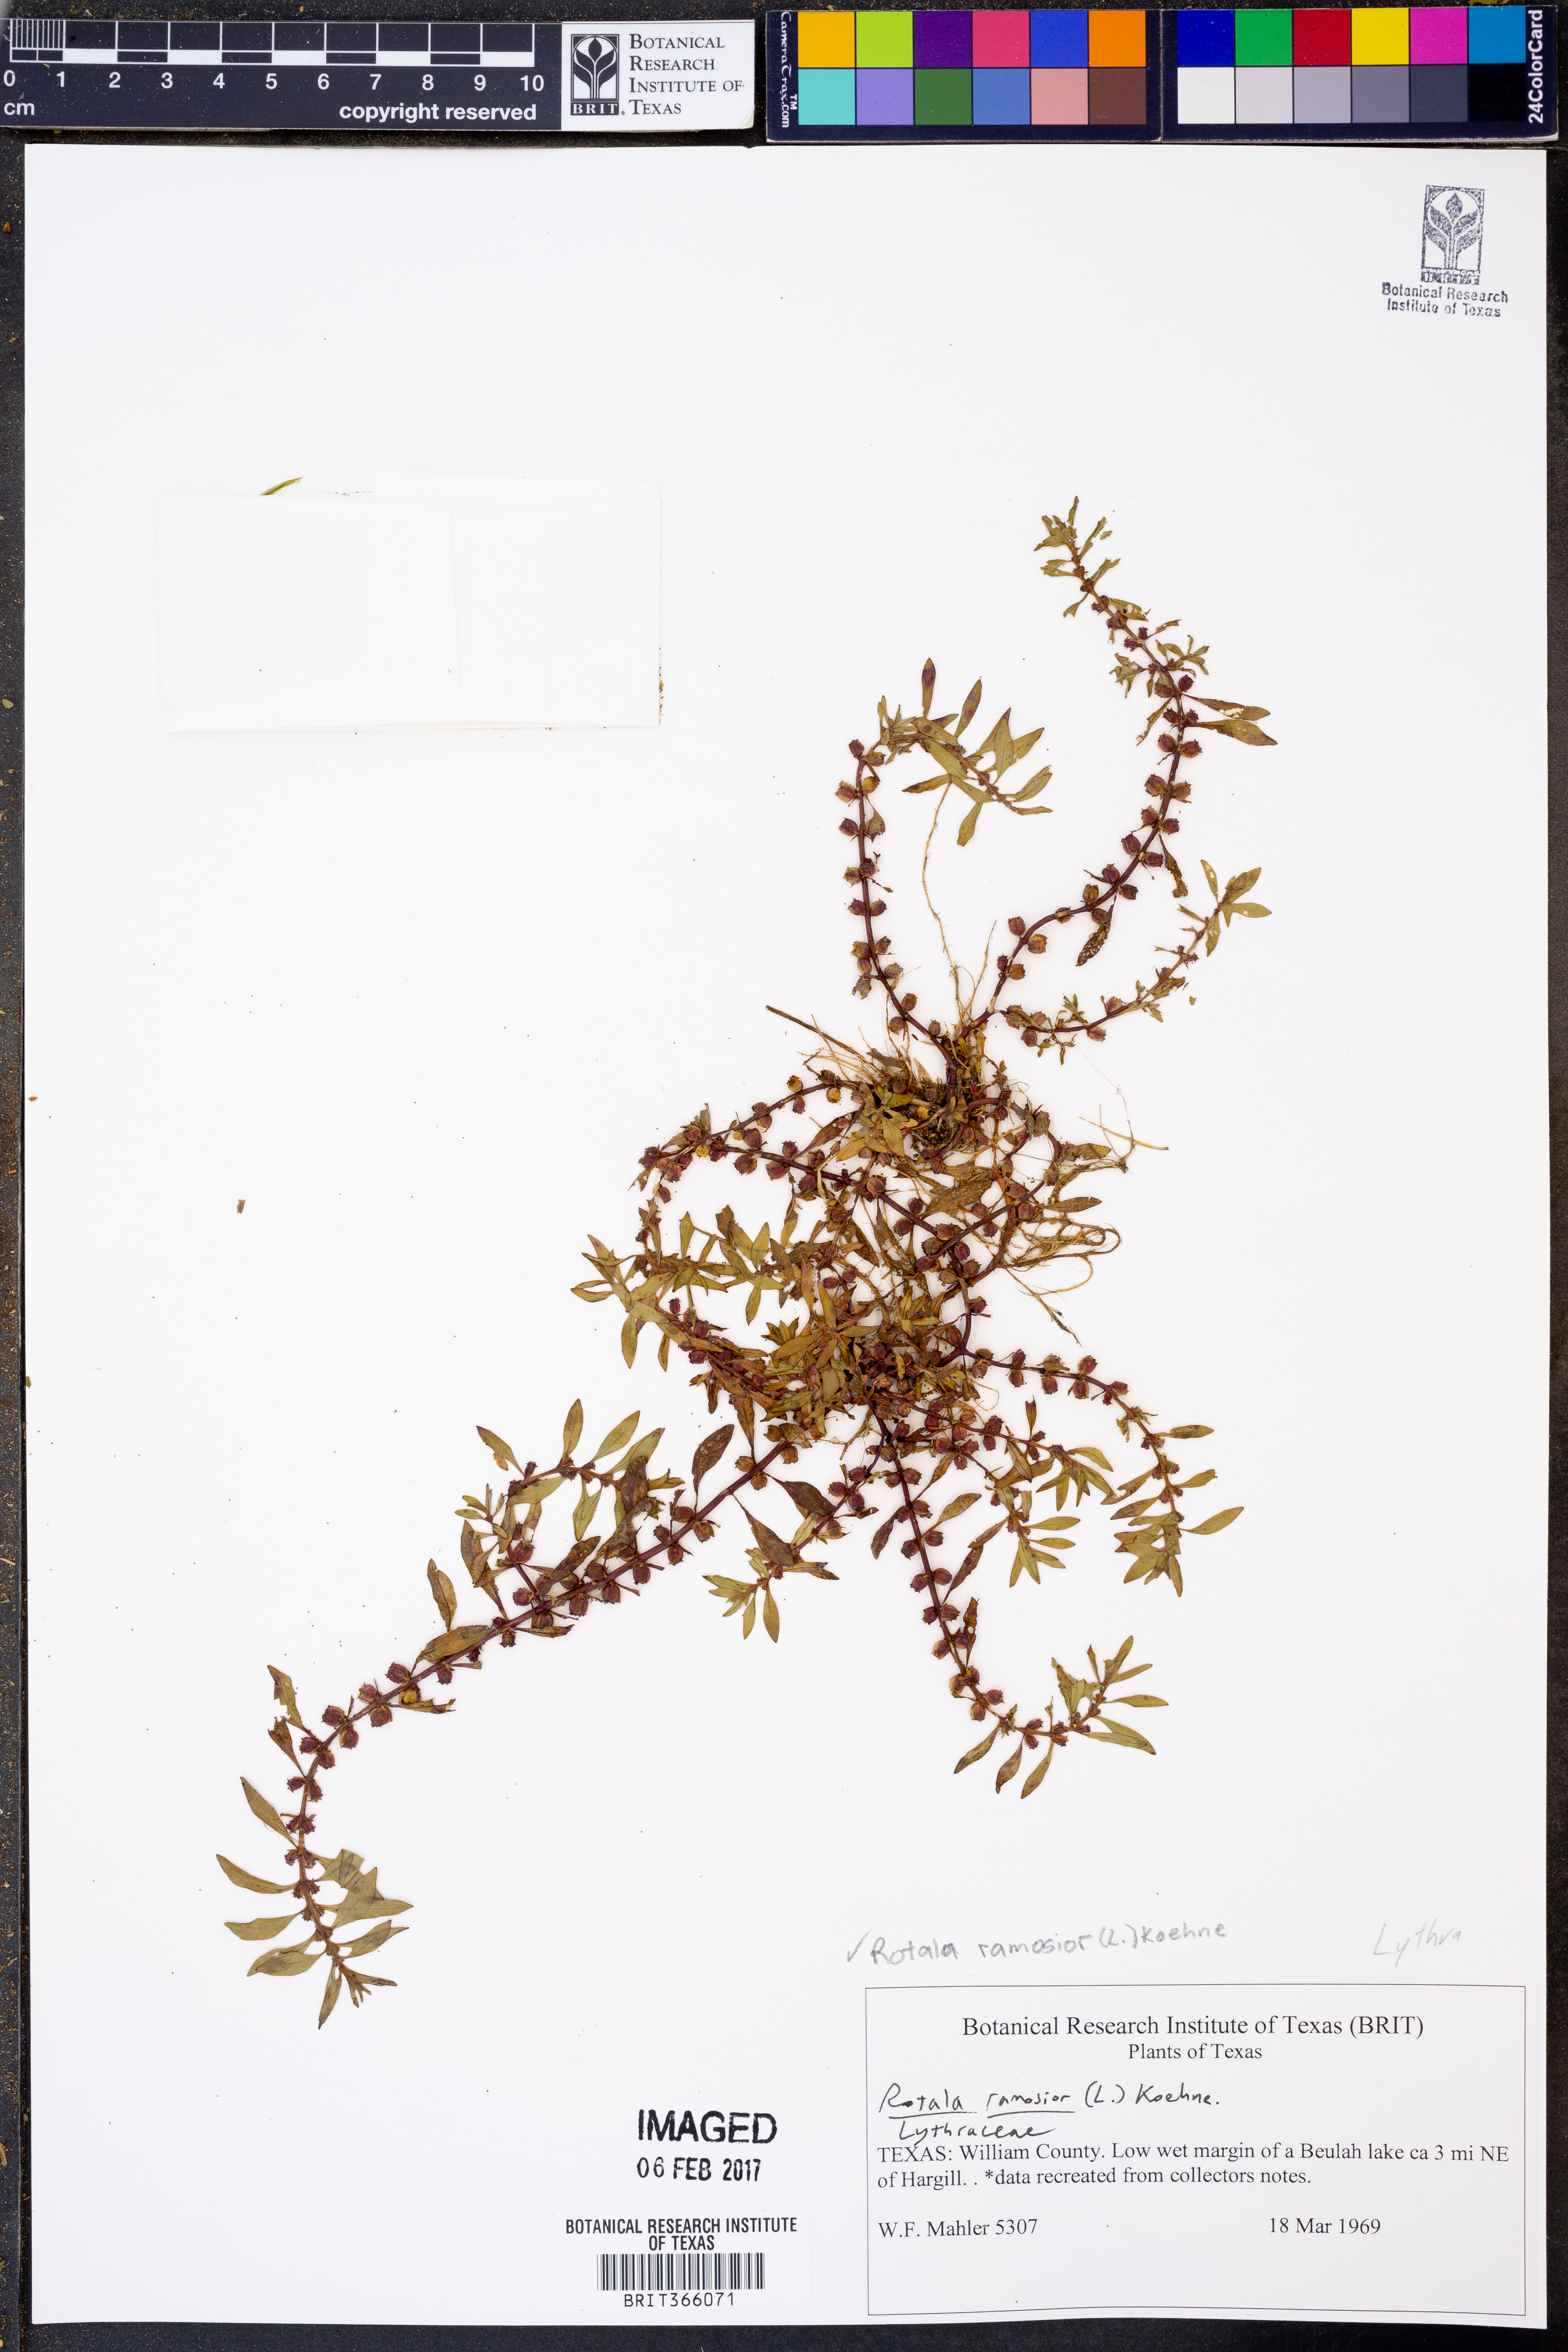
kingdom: Plantae
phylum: Tracheophyta
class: Magnoliopsida
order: Myrtales
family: Lythraceae
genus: Rotala
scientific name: Rotala ramosior
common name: Lowland rotala
